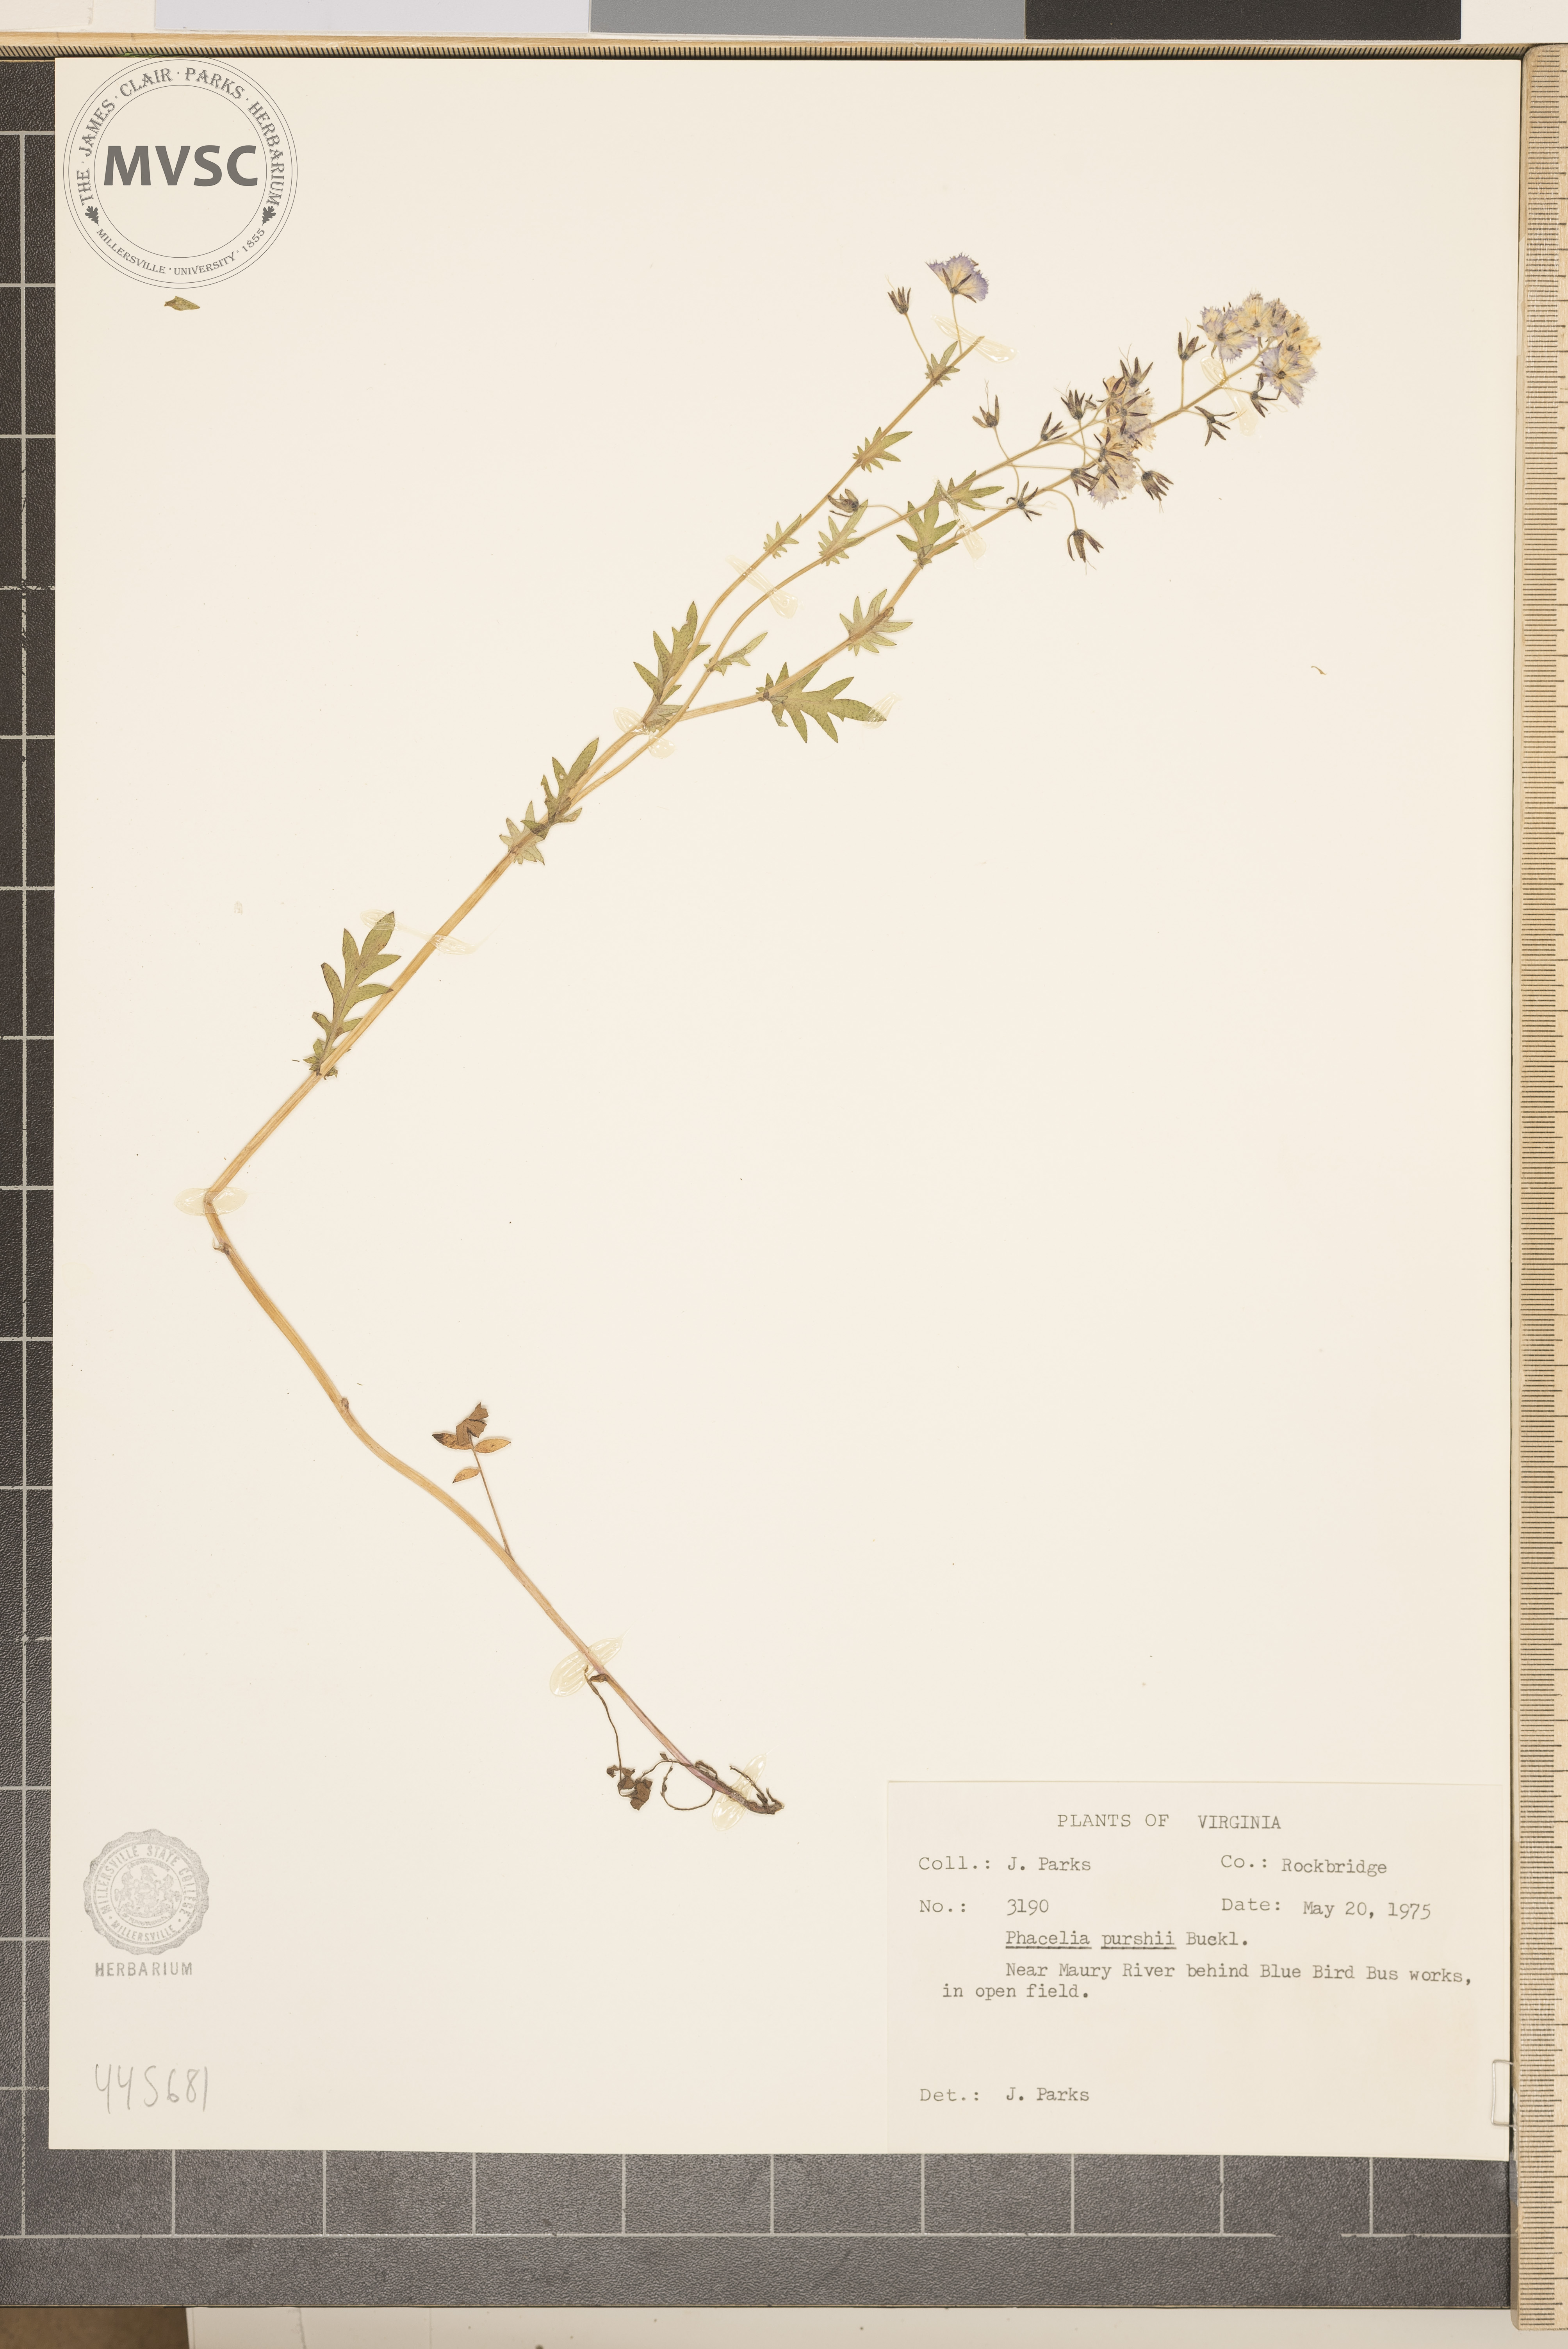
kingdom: Plantae
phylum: Tracheophyta
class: Magnoliopsida
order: Boraginales
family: Hydrophyllaceae
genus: Phacelia
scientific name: Phacelia purshii
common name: Miami-mist
